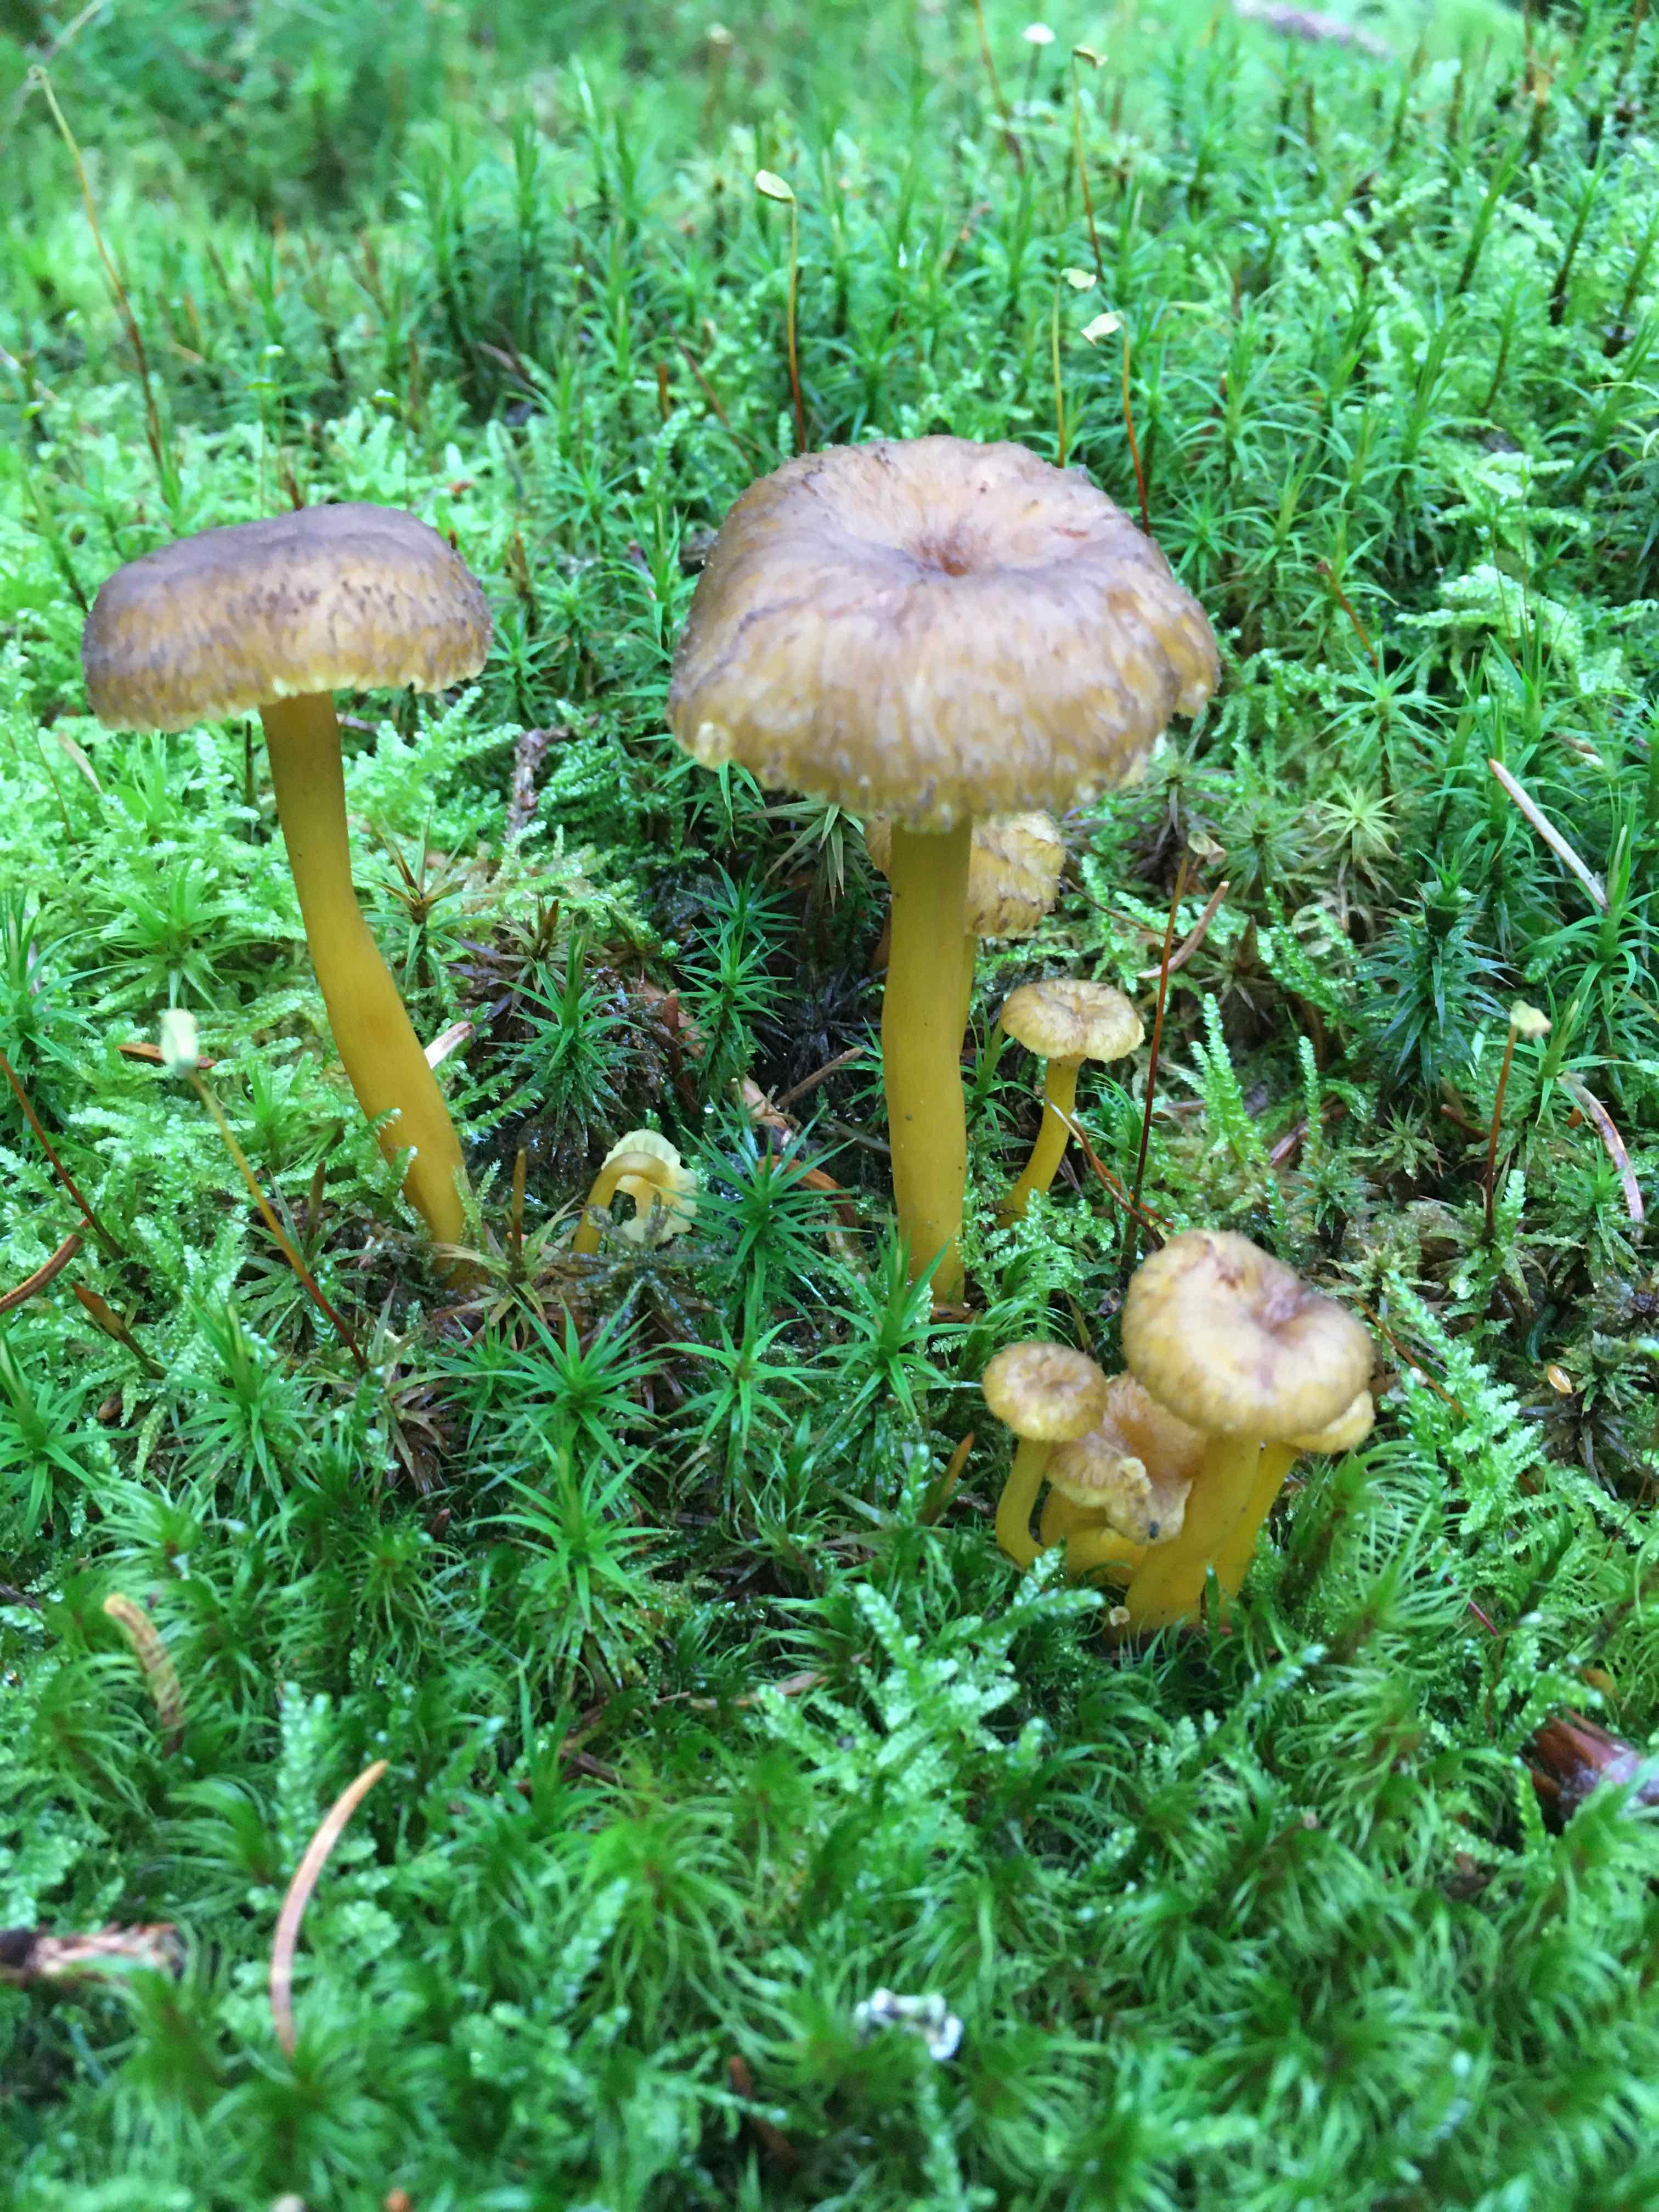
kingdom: Fungi
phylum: Basidiomycota
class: Agaricomycetes
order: Cantharellales
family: Hydnaceae
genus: Craterellus
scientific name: Craterellus tubaeformis
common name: tragt-kantarel
